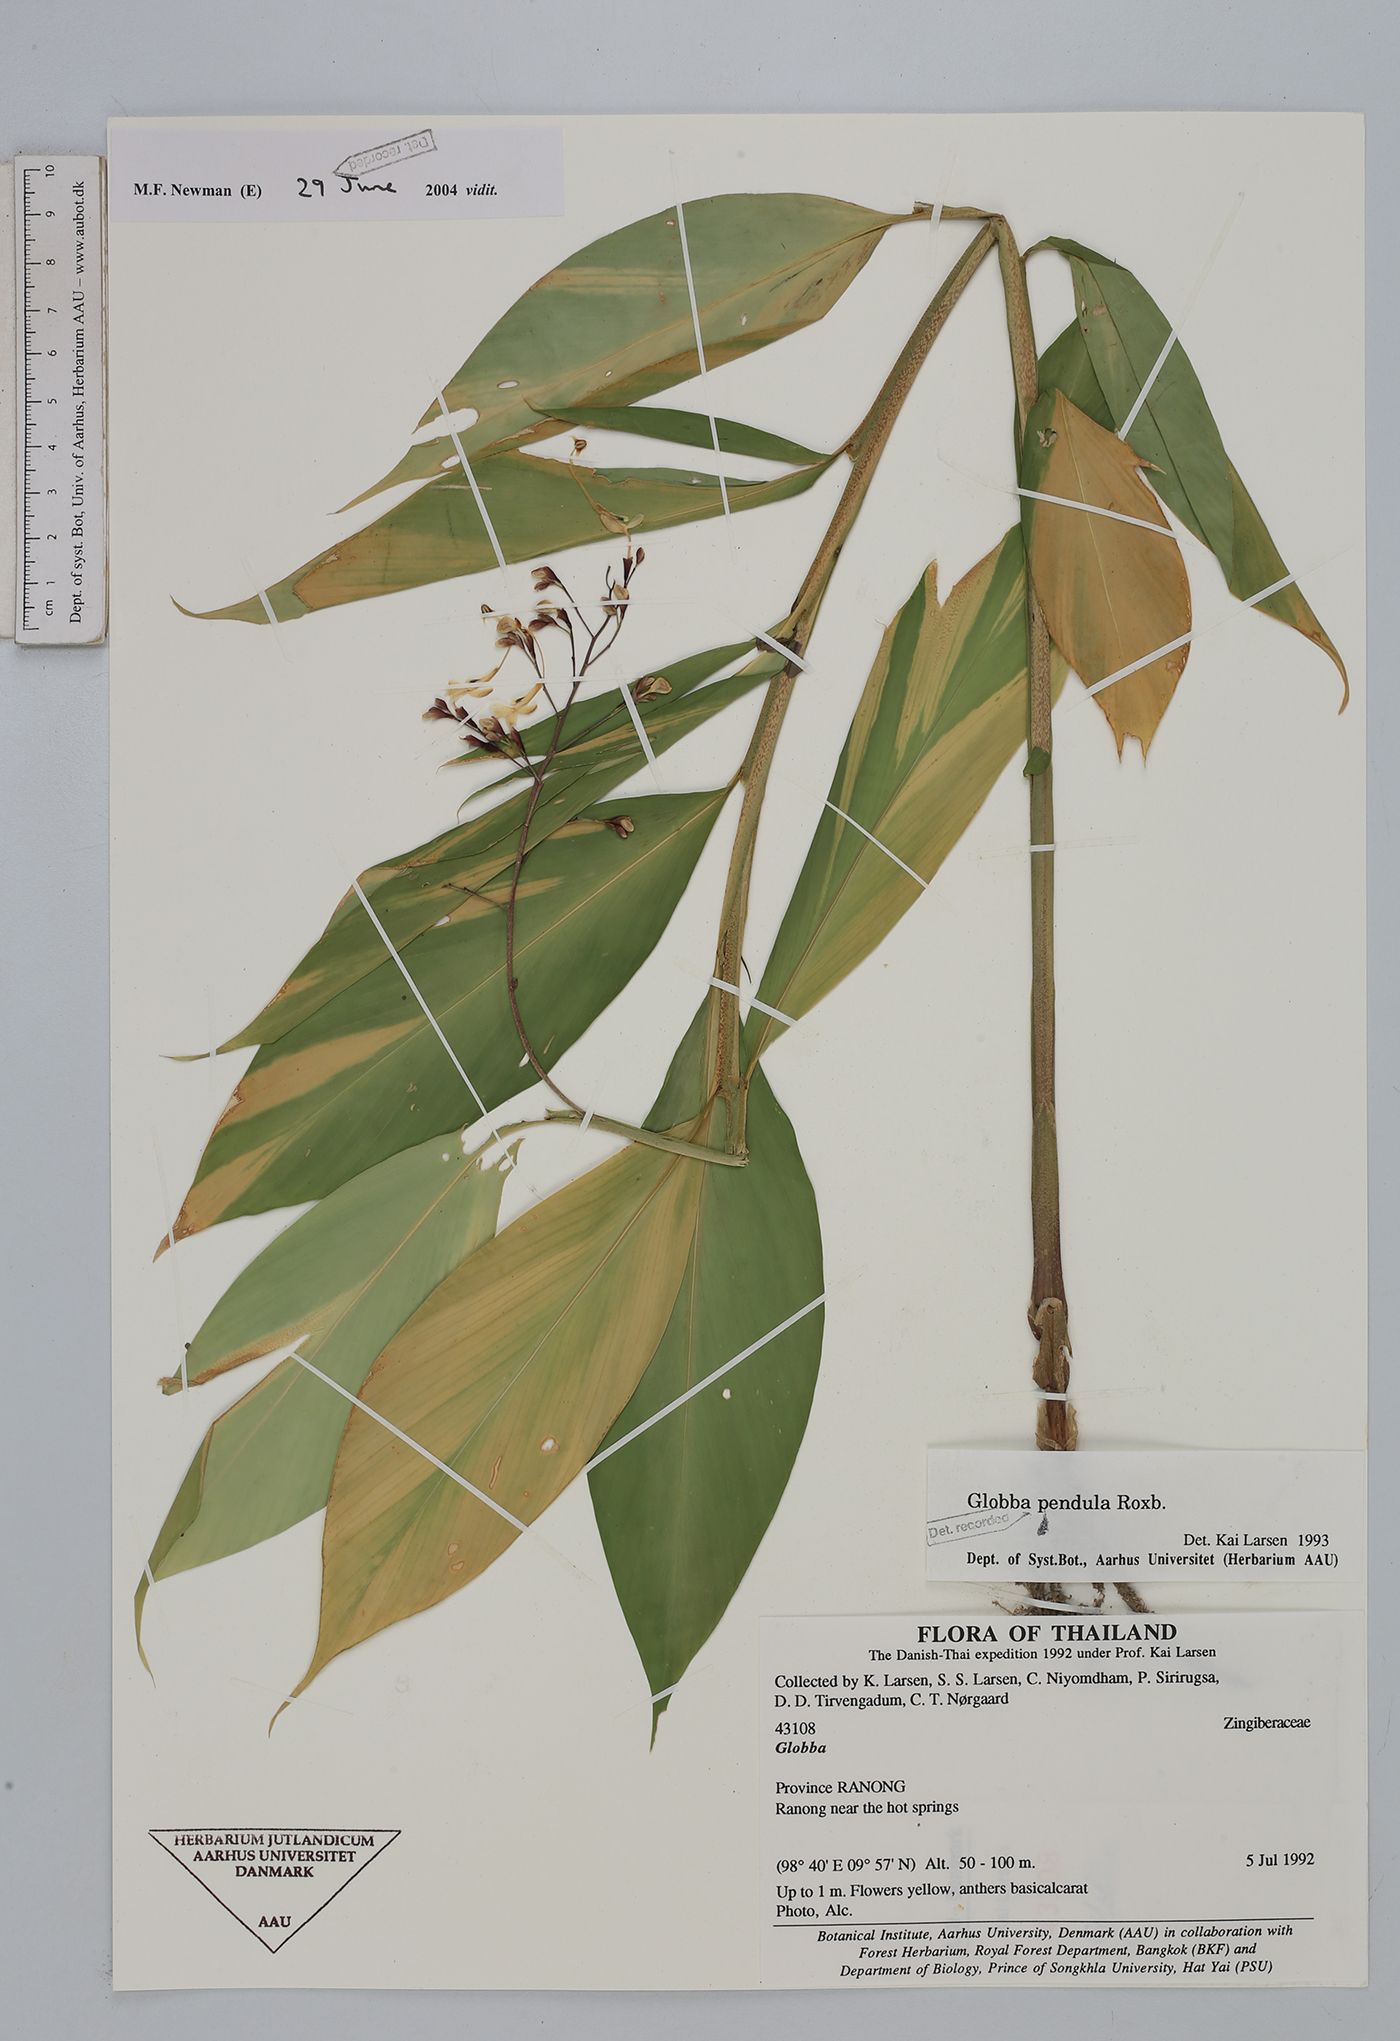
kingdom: Plantae
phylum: Tracheophyta
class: Liliopsida
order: Zingiberales
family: Zingiberaceae
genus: Globba
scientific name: Globba pendula
